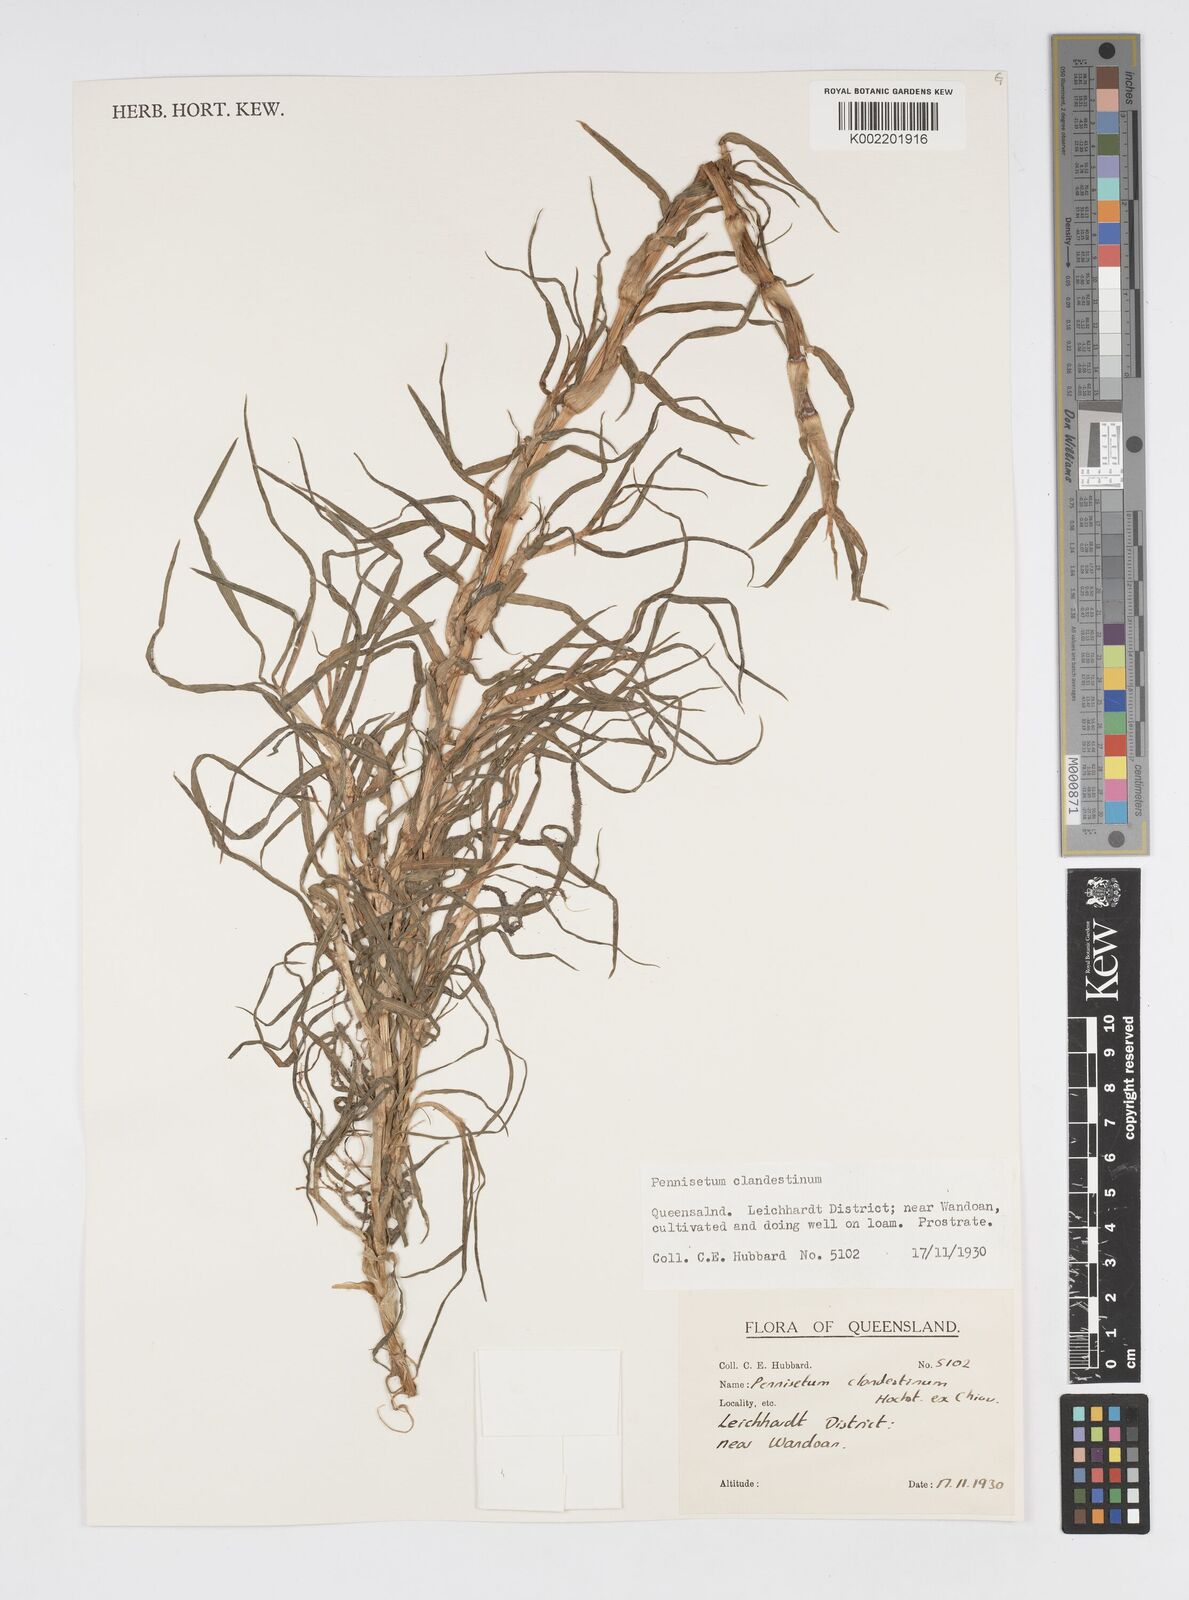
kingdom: Plantae
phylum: Tracheophyta
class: Liliopsida
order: Poales
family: Poaceae
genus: Cenchrus
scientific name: Cenchrus clandestinus
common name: Kikuyugrass
